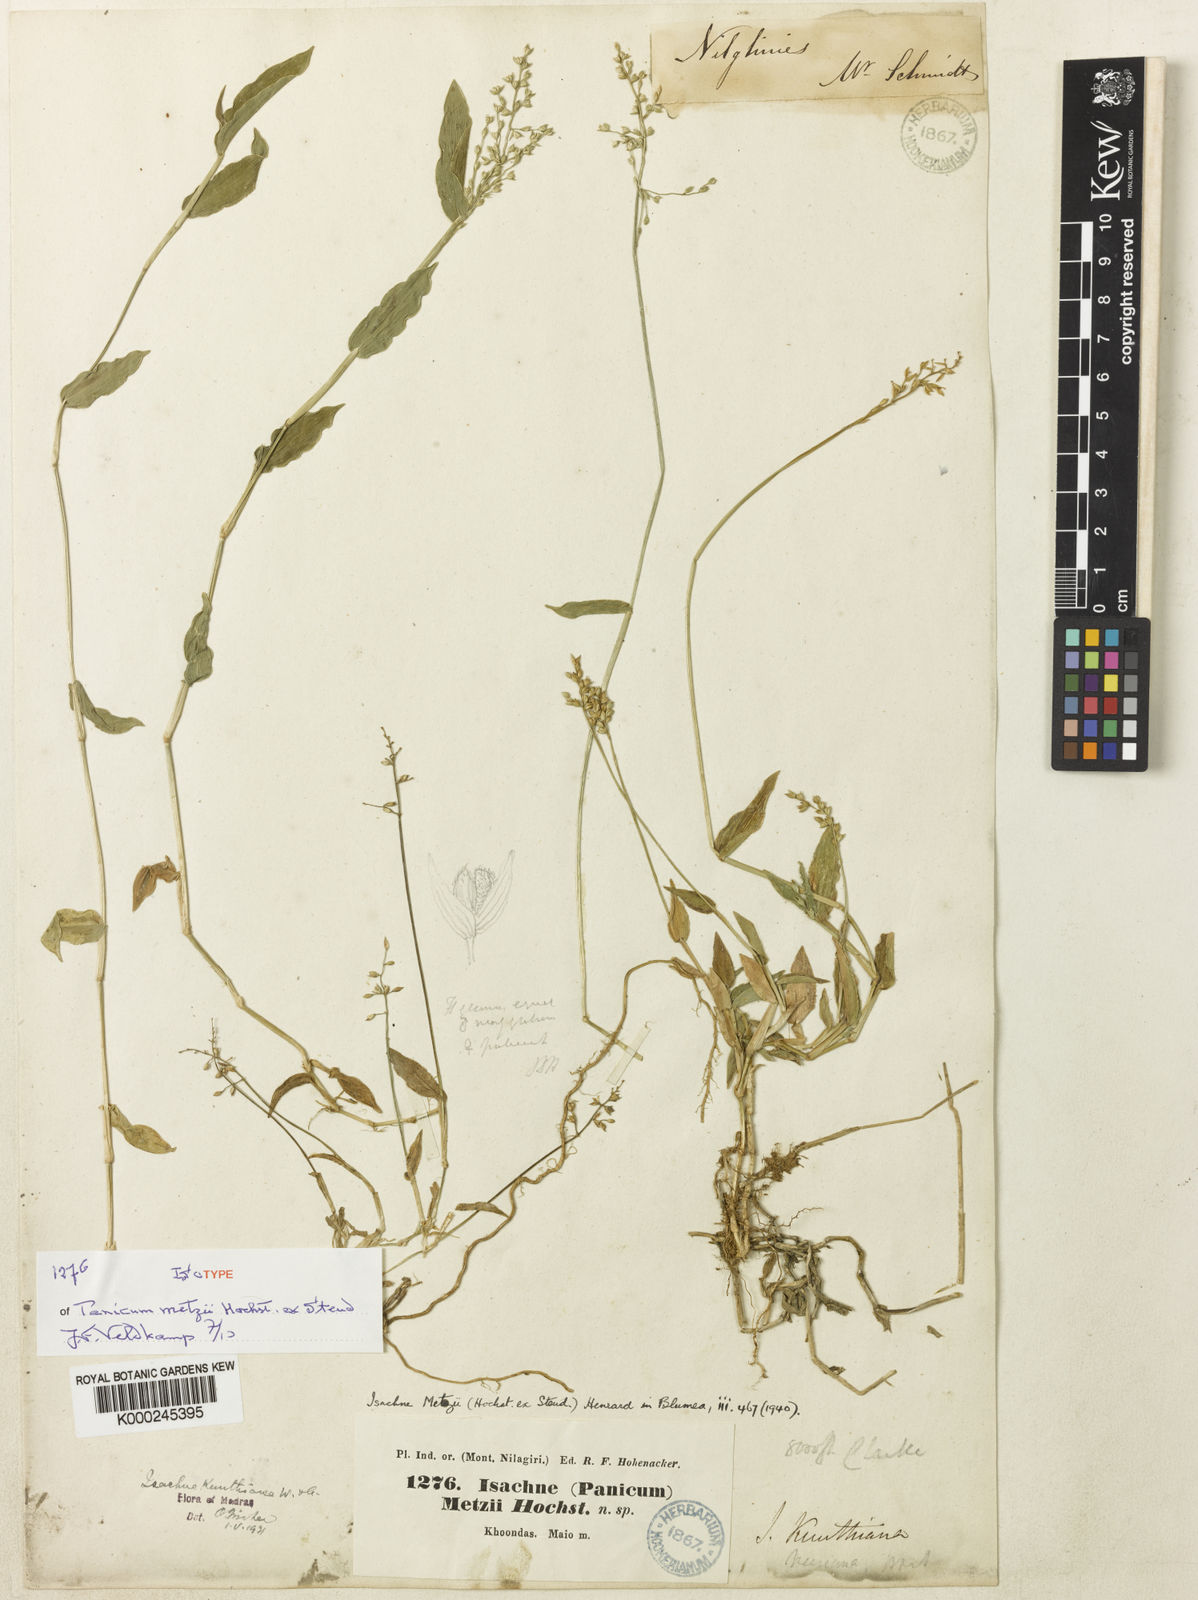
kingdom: Plantae
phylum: Tracheophyta
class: Liliopsida
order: Poales
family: Poaceae
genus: Isachne
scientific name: Isachne kunthiana
